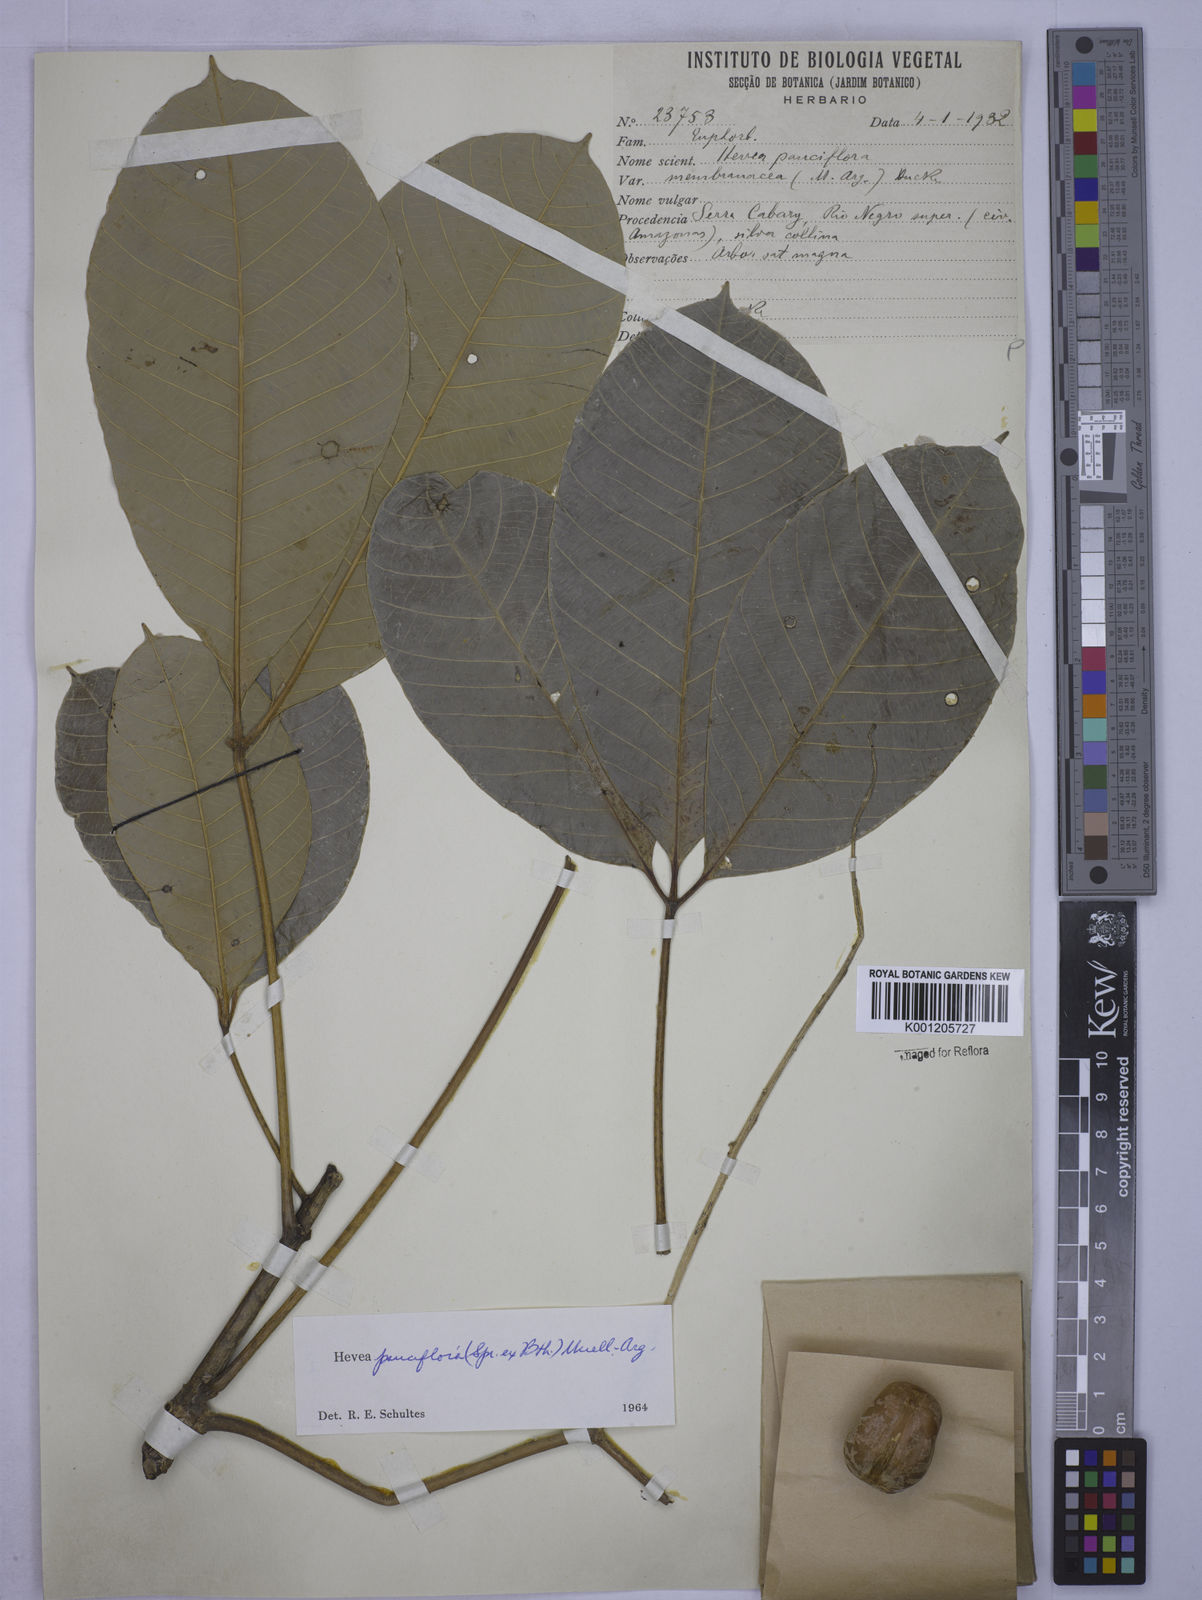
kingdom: Plantae
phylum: Tracheophyta
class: Magnoliopsida
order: Malpighiales
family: Euphorbiaceae
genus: Hevea
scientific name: Hevea
